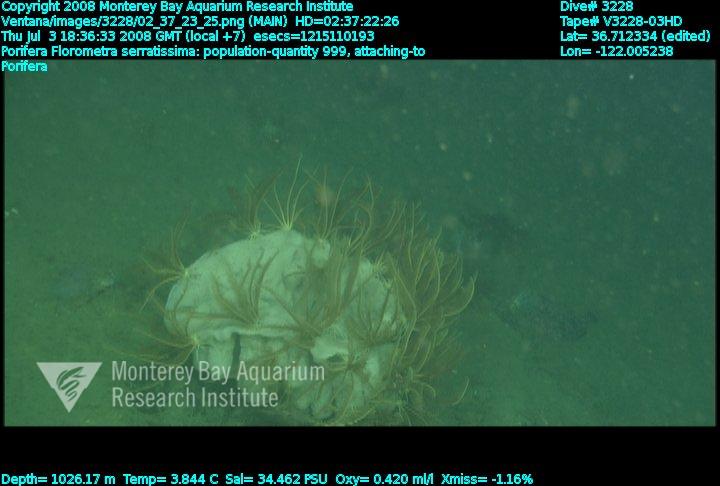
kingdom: Animalia
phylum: Porifera
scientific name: Porifera
